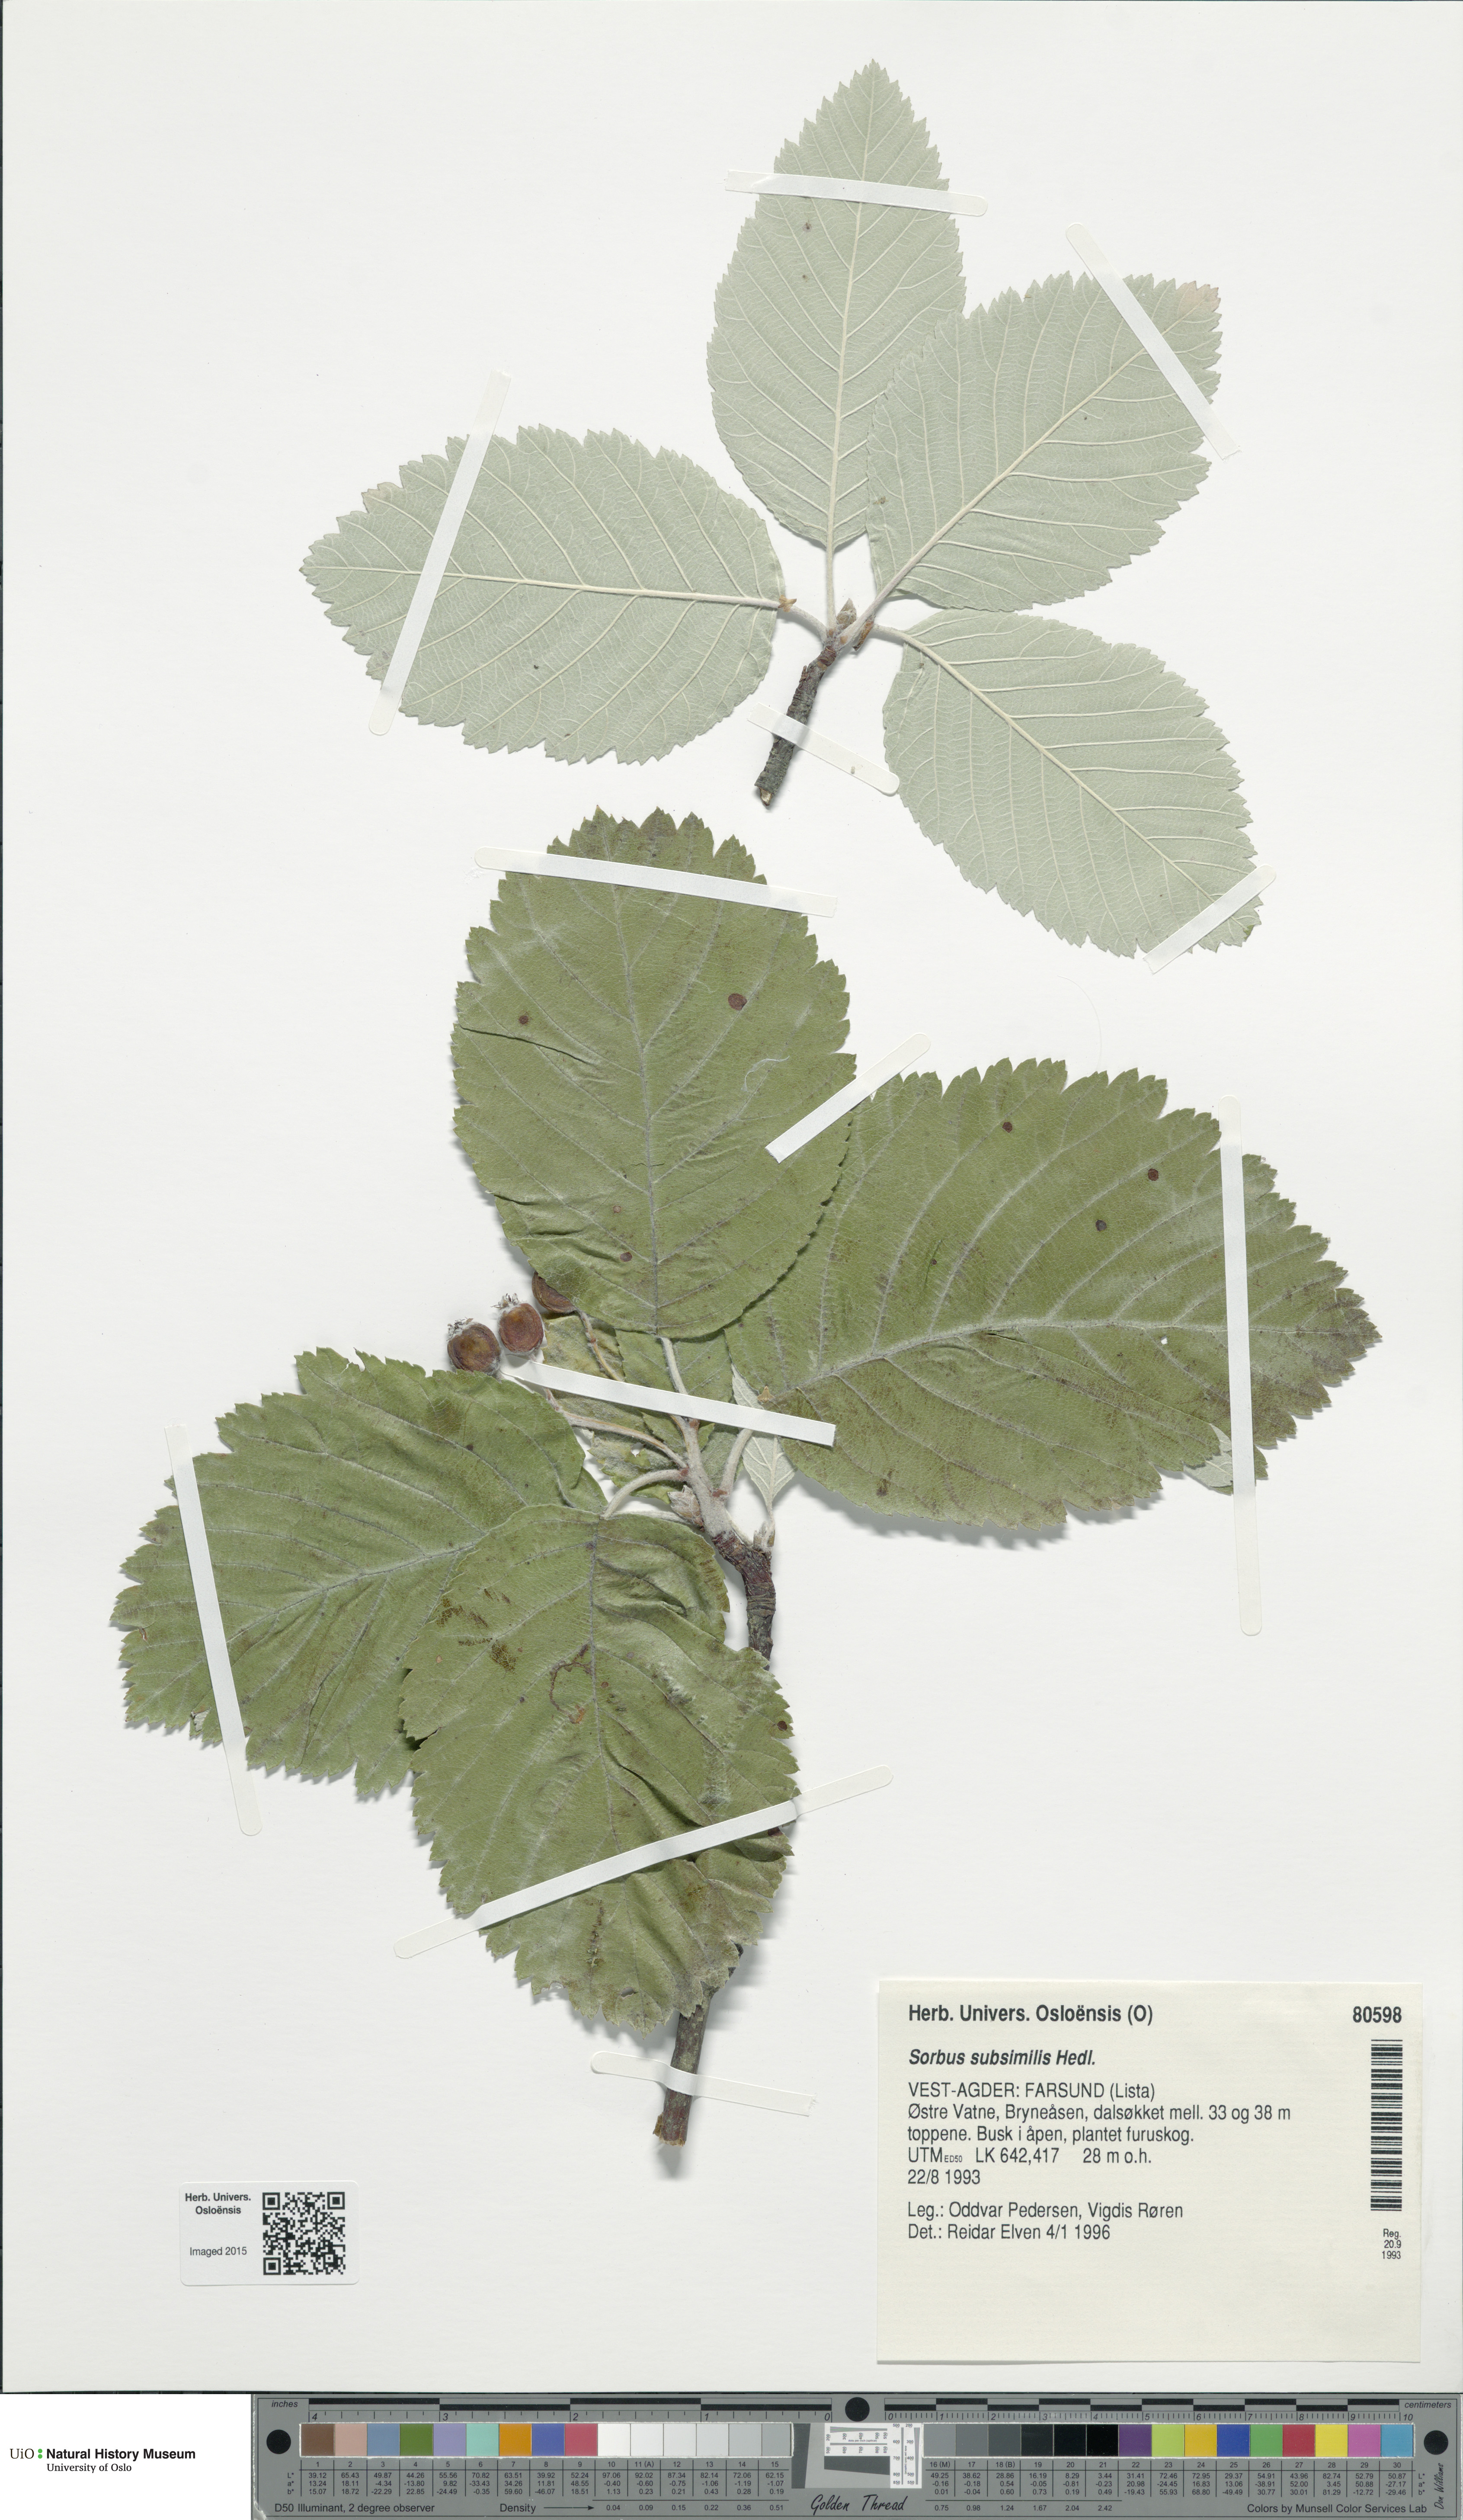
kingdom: Plantae
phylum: Tracheophyta
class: Magnoliopsida
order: Rosales
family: Rosaceae
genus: Hedlundia
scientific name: Hedlundia subsimilis
